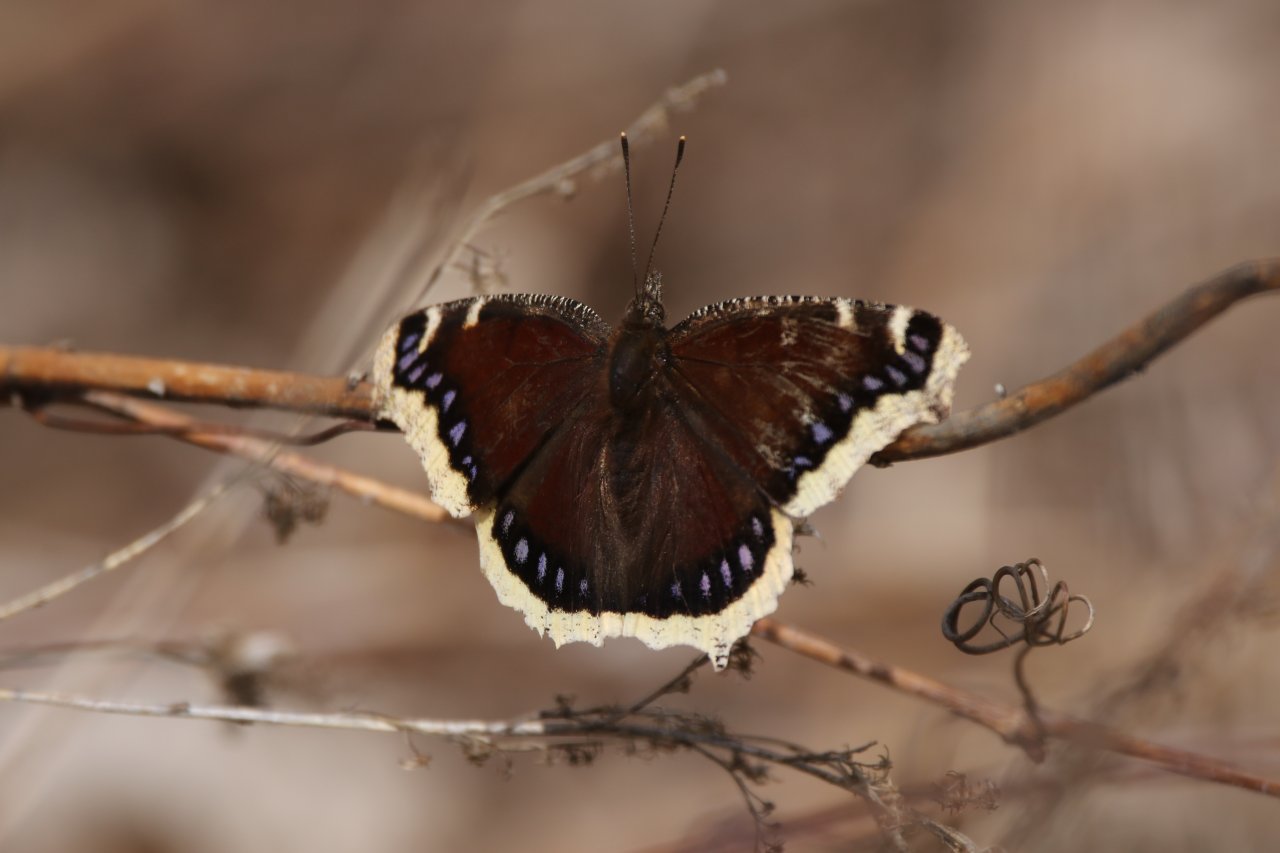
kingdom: Animalia
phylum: Arthropoda
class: Insecta
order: Lepidoptera
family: Nymphalidae
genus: Nymphalis
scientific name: Nymphalis antiopa
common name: Mourning Cloak
